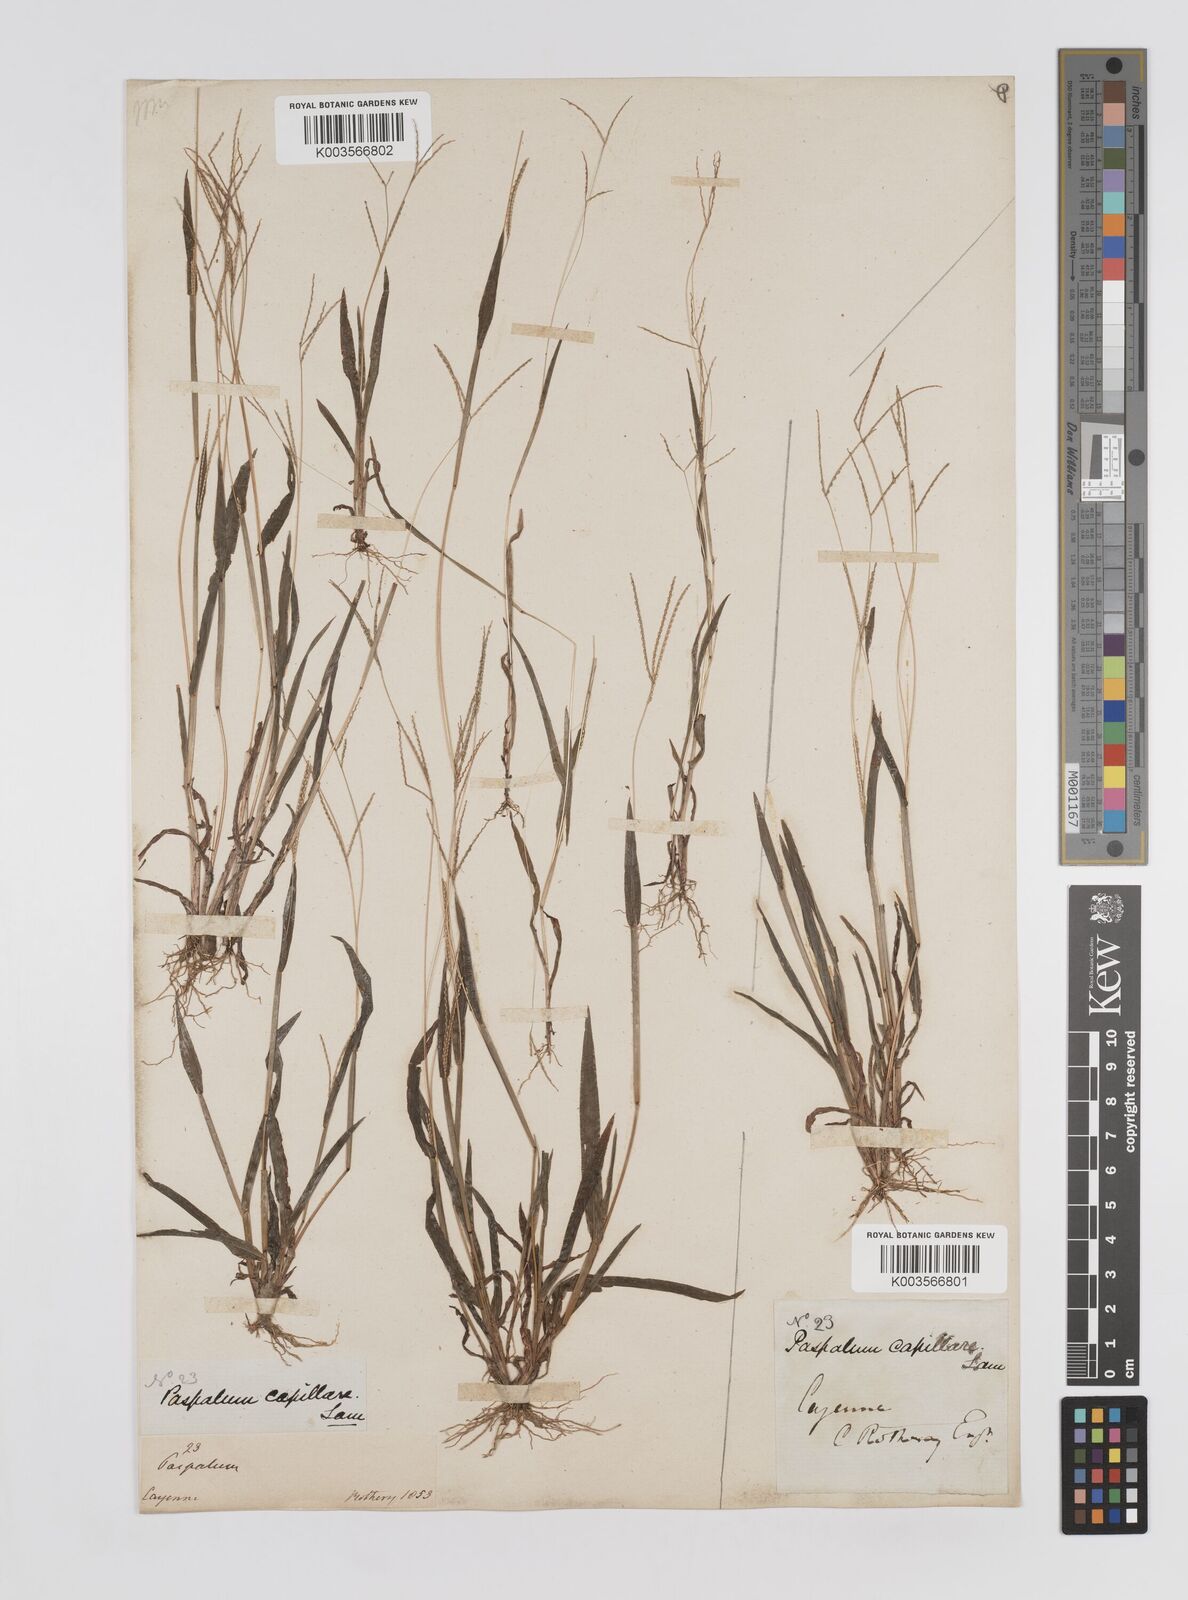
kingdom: Plantae
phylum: Tracheophyta
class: Liliopsida
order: Poales
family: Poaceae
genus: Axonopus
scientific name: Axonopus capillaris
